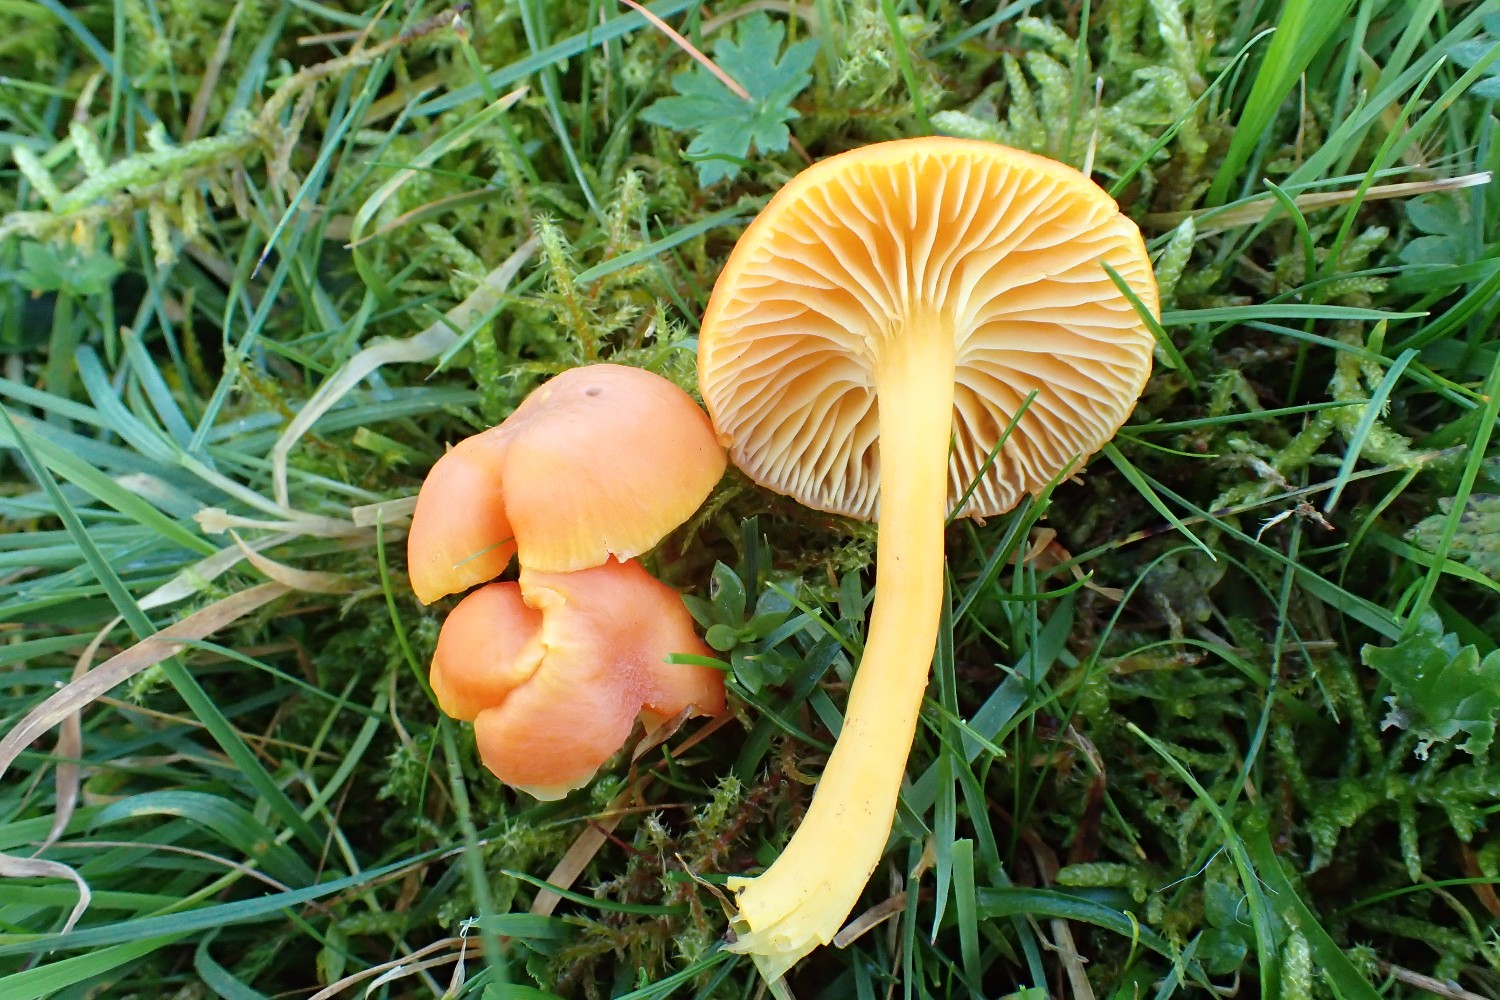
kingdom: Fungi
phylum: Basidiomycota
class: Agaricomycetes
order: Agaricales
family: Hygrophoraceae
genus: Hygrocybe
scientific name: Hygrocybe reidii
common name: honning-vokshat
